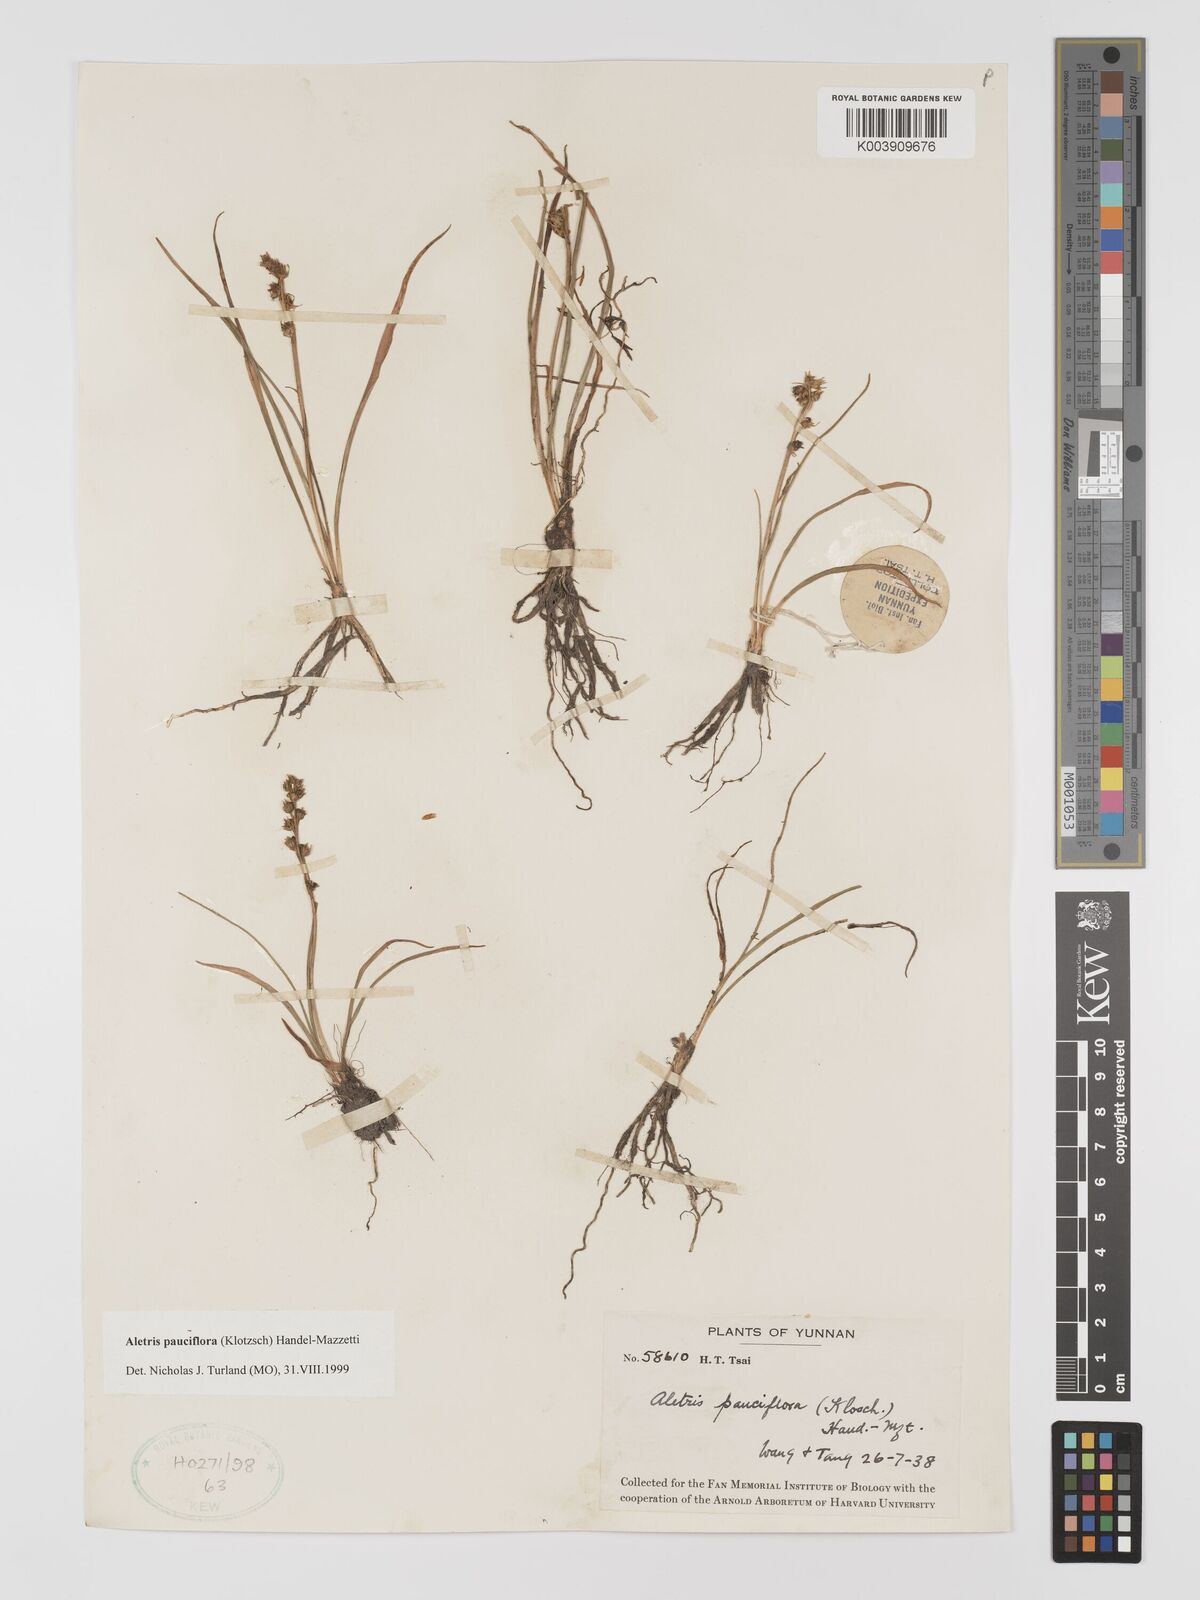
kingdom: Plantae
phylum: Tracheophyta
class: Liliopsida
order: Dioscoreales
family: Nartheciaceae
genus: Aletris
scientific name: Aletris pauciflora
